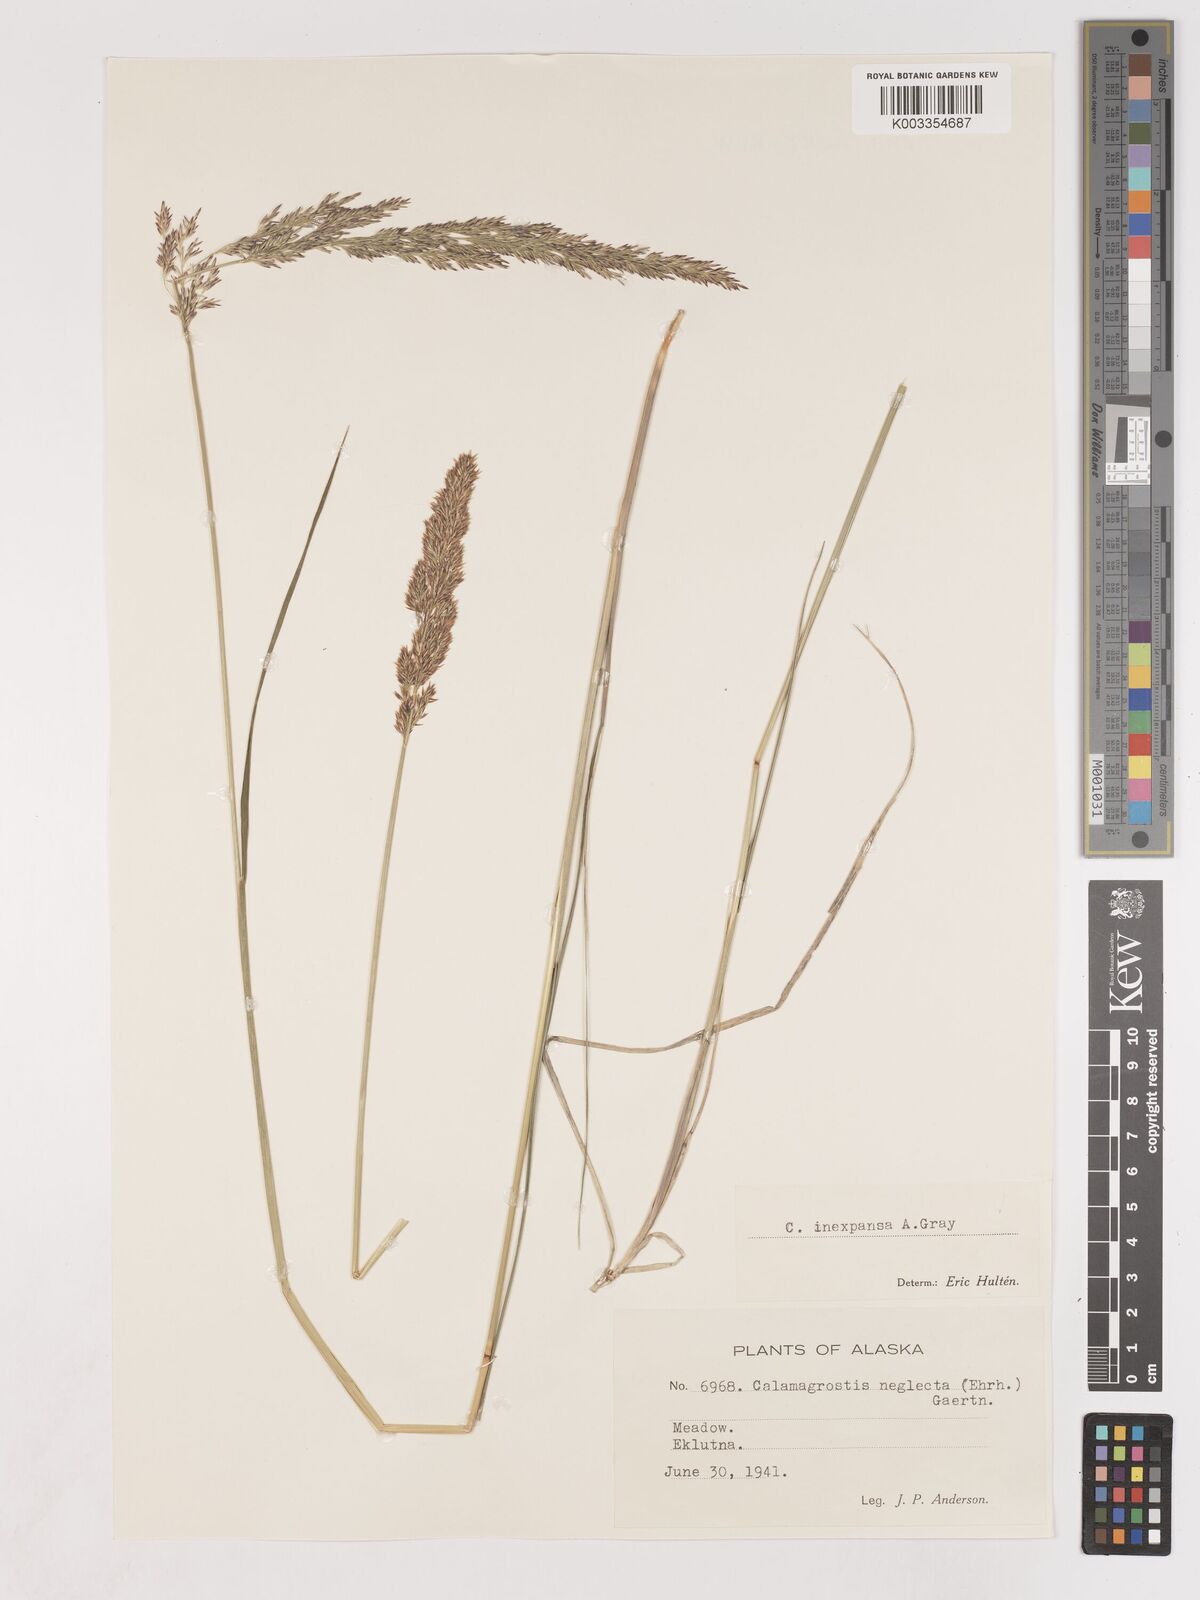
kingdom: Plantae
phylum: Tracheophyta
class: Liliopsida
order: Poales
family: Poaceae
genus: Cinnagrostis
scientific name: Cinnagrostis recta
